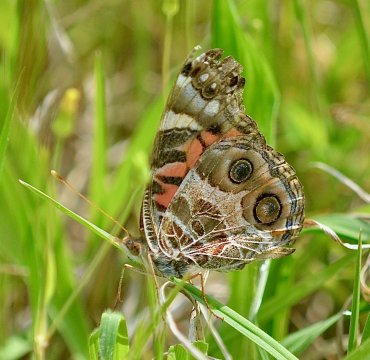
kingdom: Animalia
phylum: Arthropoda
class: Insecta
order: Lepidoptera
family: Nymphalidae
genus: Vanessa
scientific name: Vanessa virginiensis
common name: American Lady
